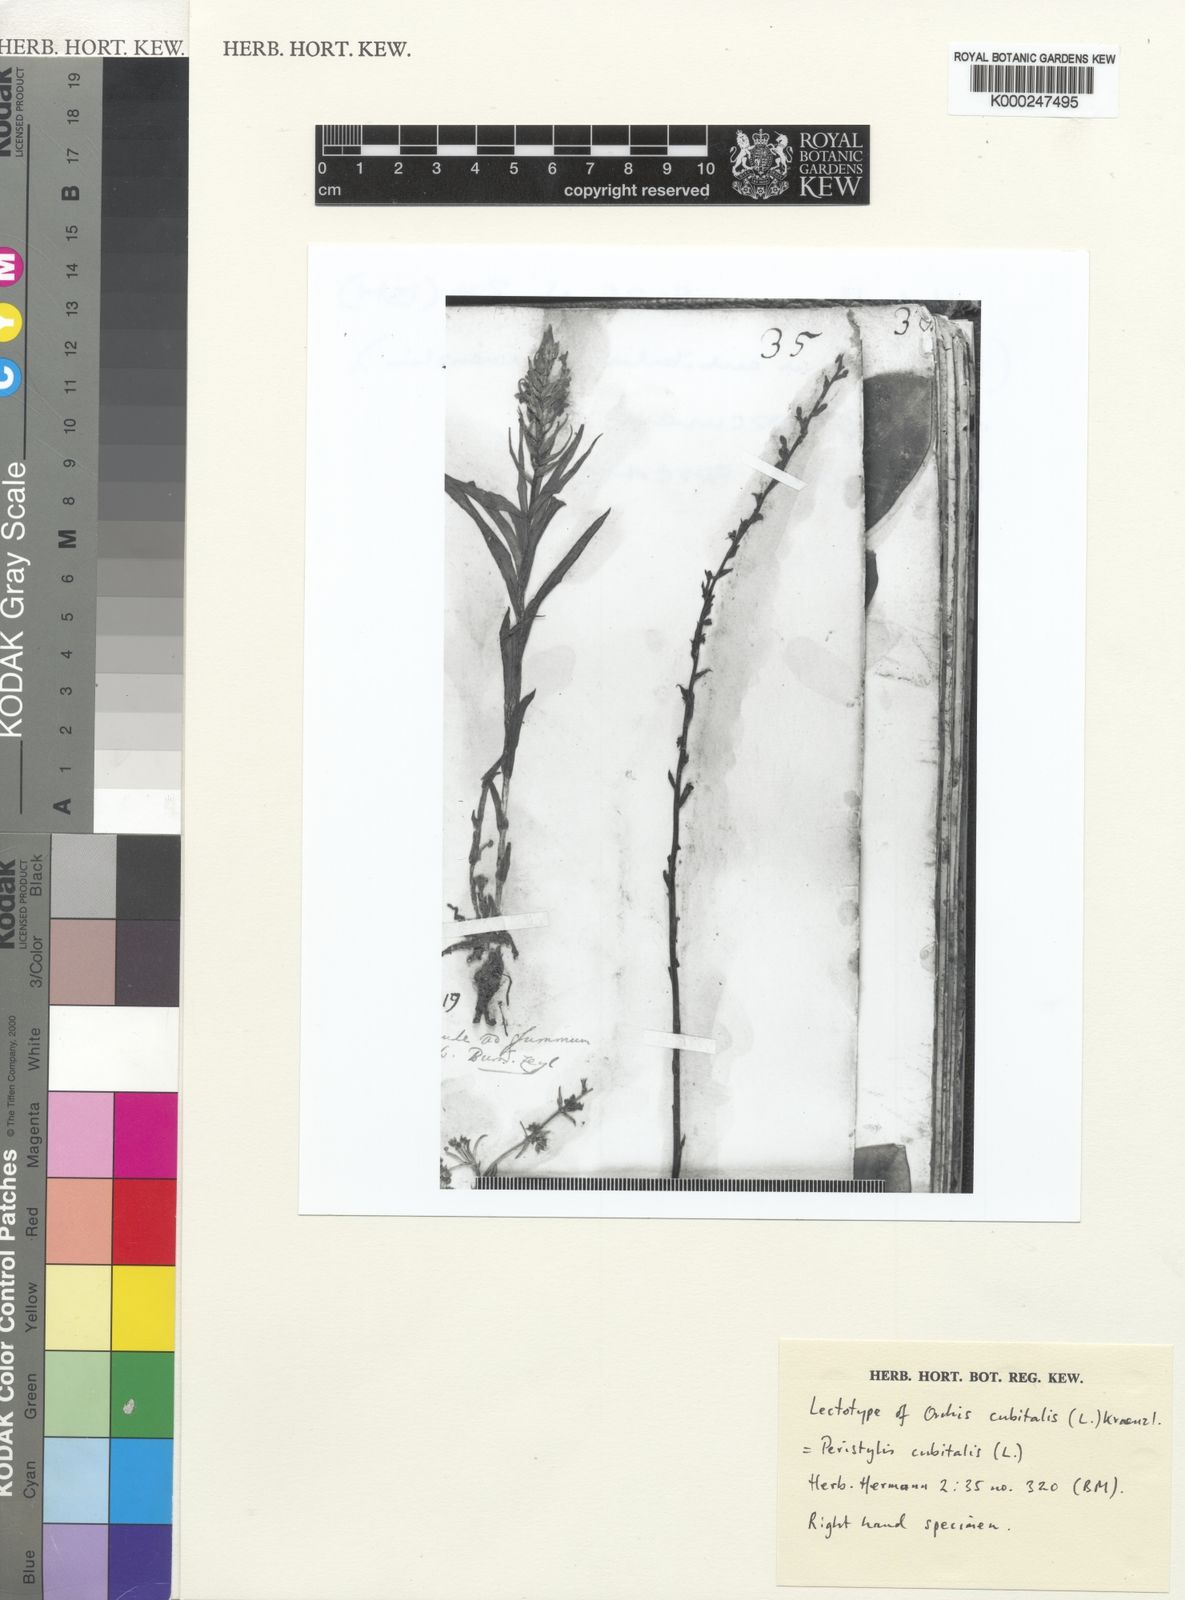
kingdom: Plantae
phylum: Tracheophyta
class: Liliopsida
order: Asparagales
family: Orchidaceae
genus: Peristylus
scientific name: Peristylus cubitalis
